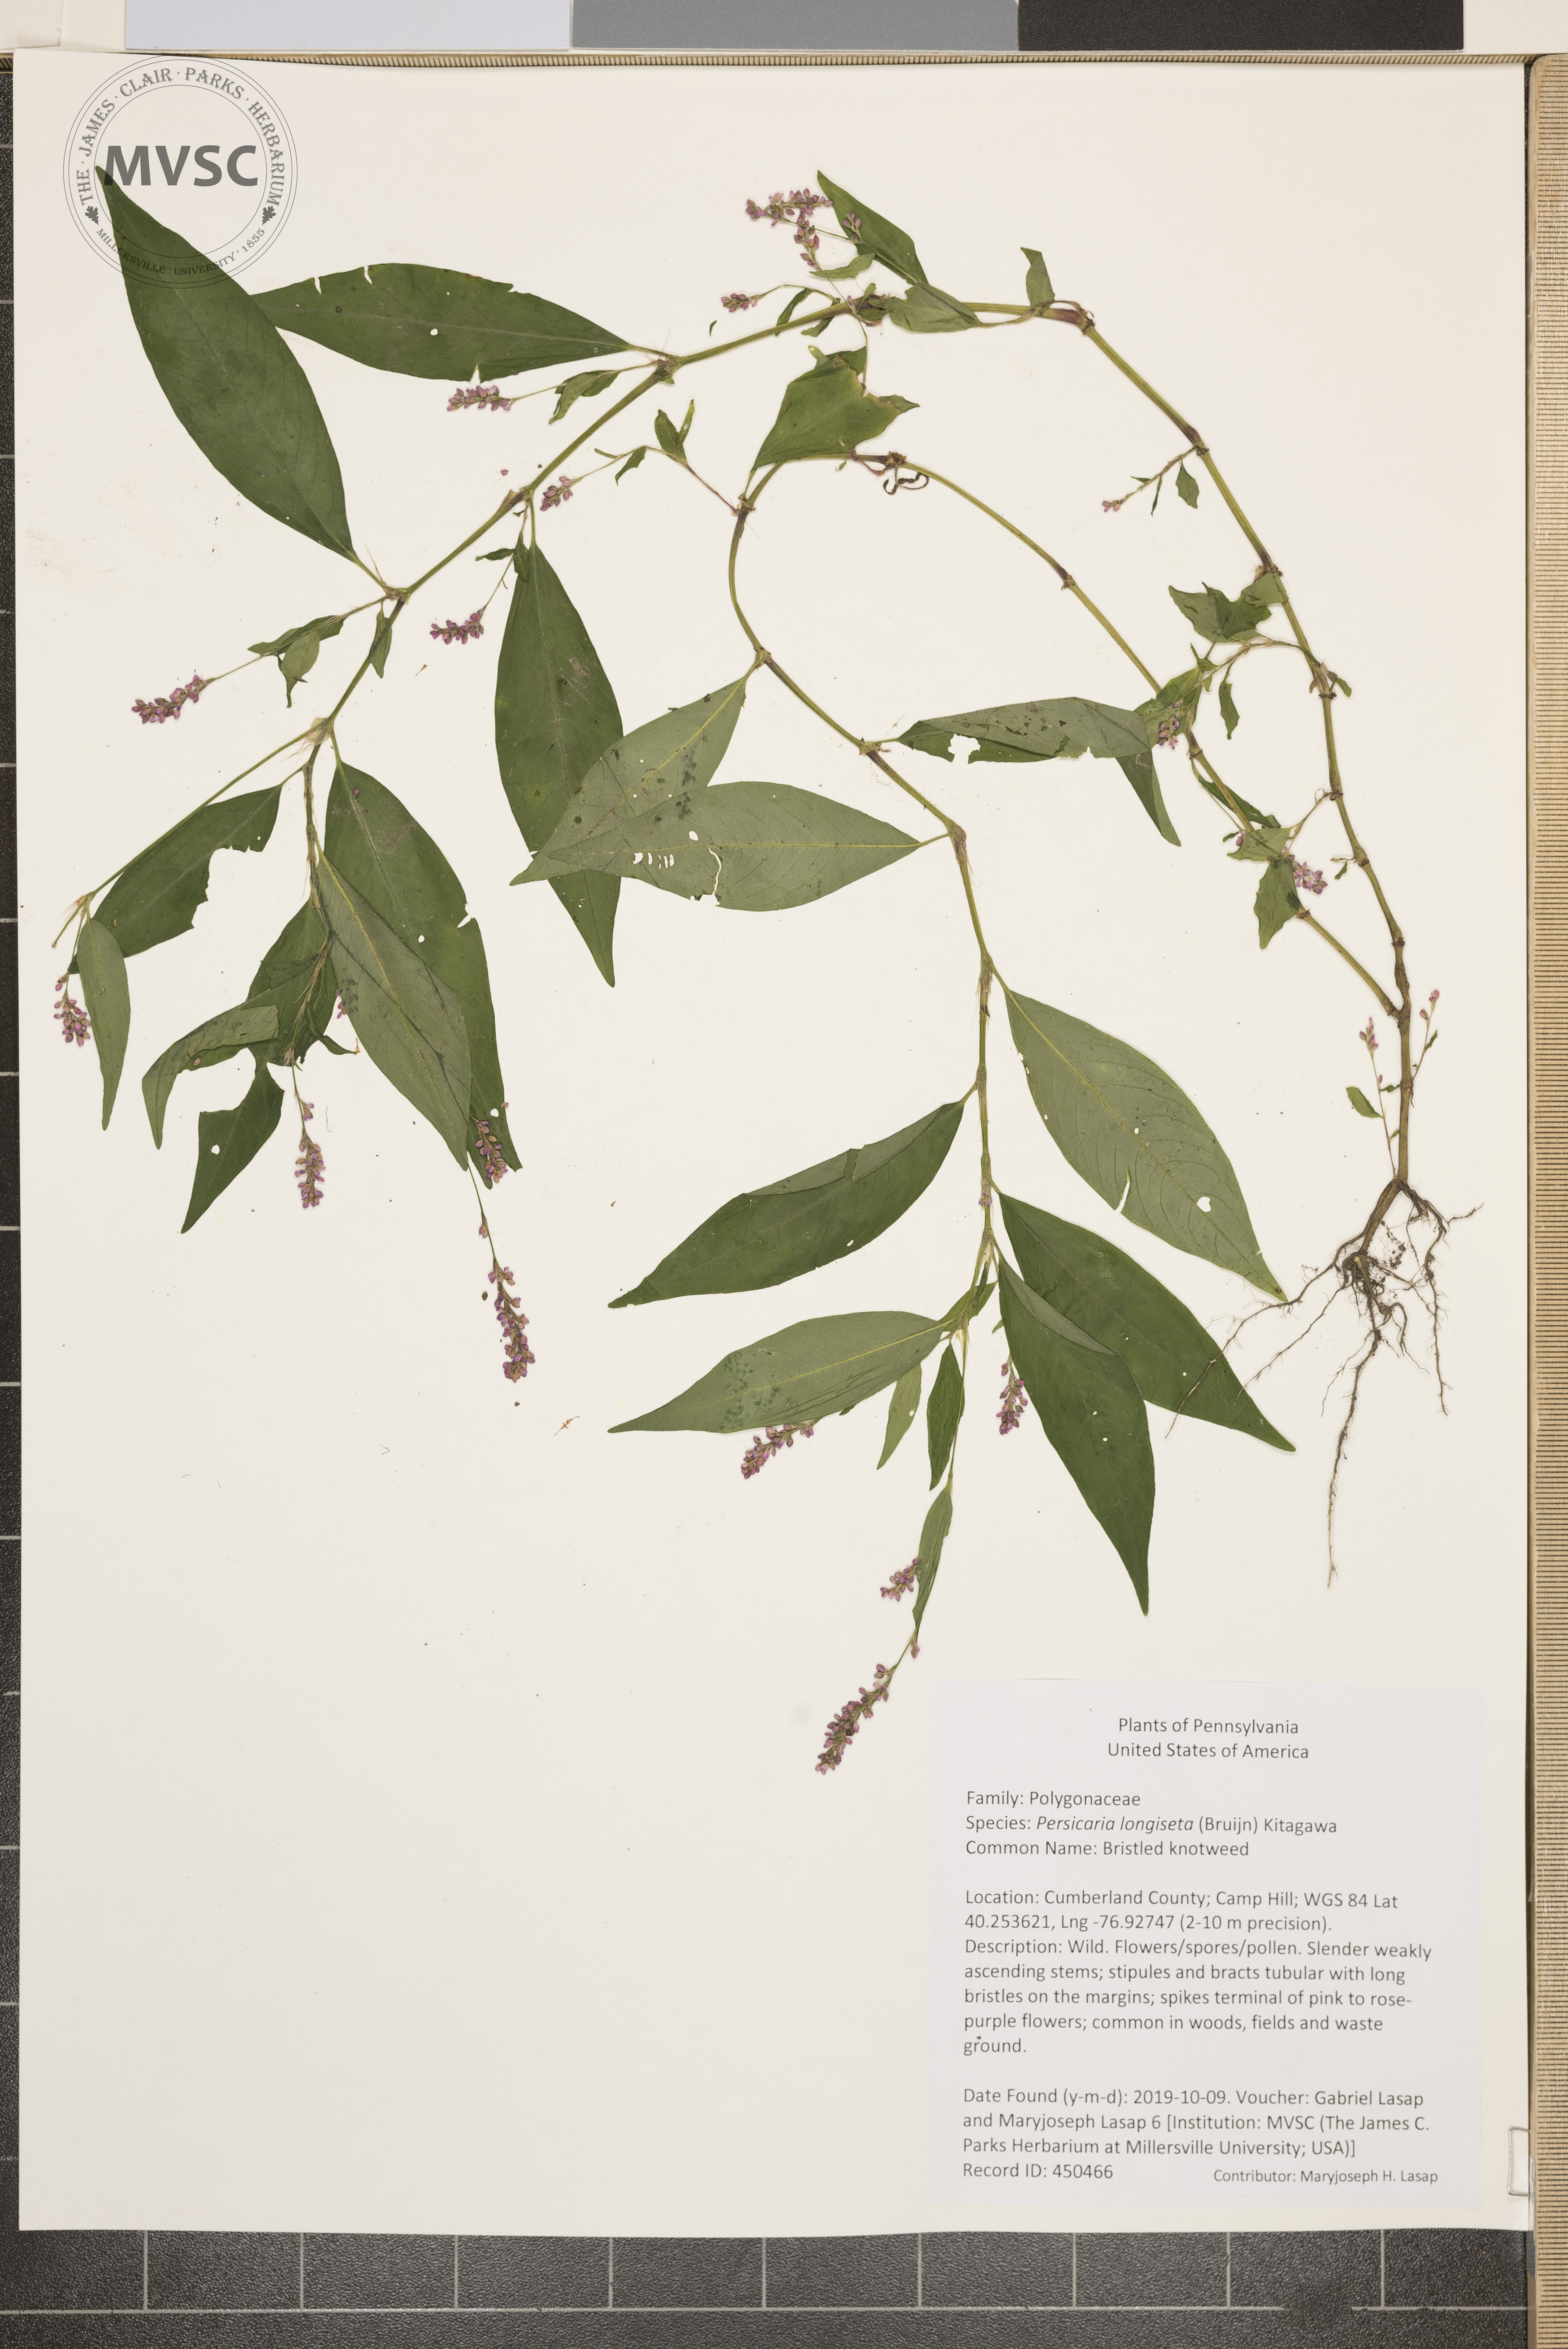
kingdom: Plantae
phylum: Tracheophyta
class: Magnoliopsida
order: Caryophyllales
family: Polygonaceae
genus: Persicaria
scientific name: Persicaria longiseta
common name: Bristled knotweed
